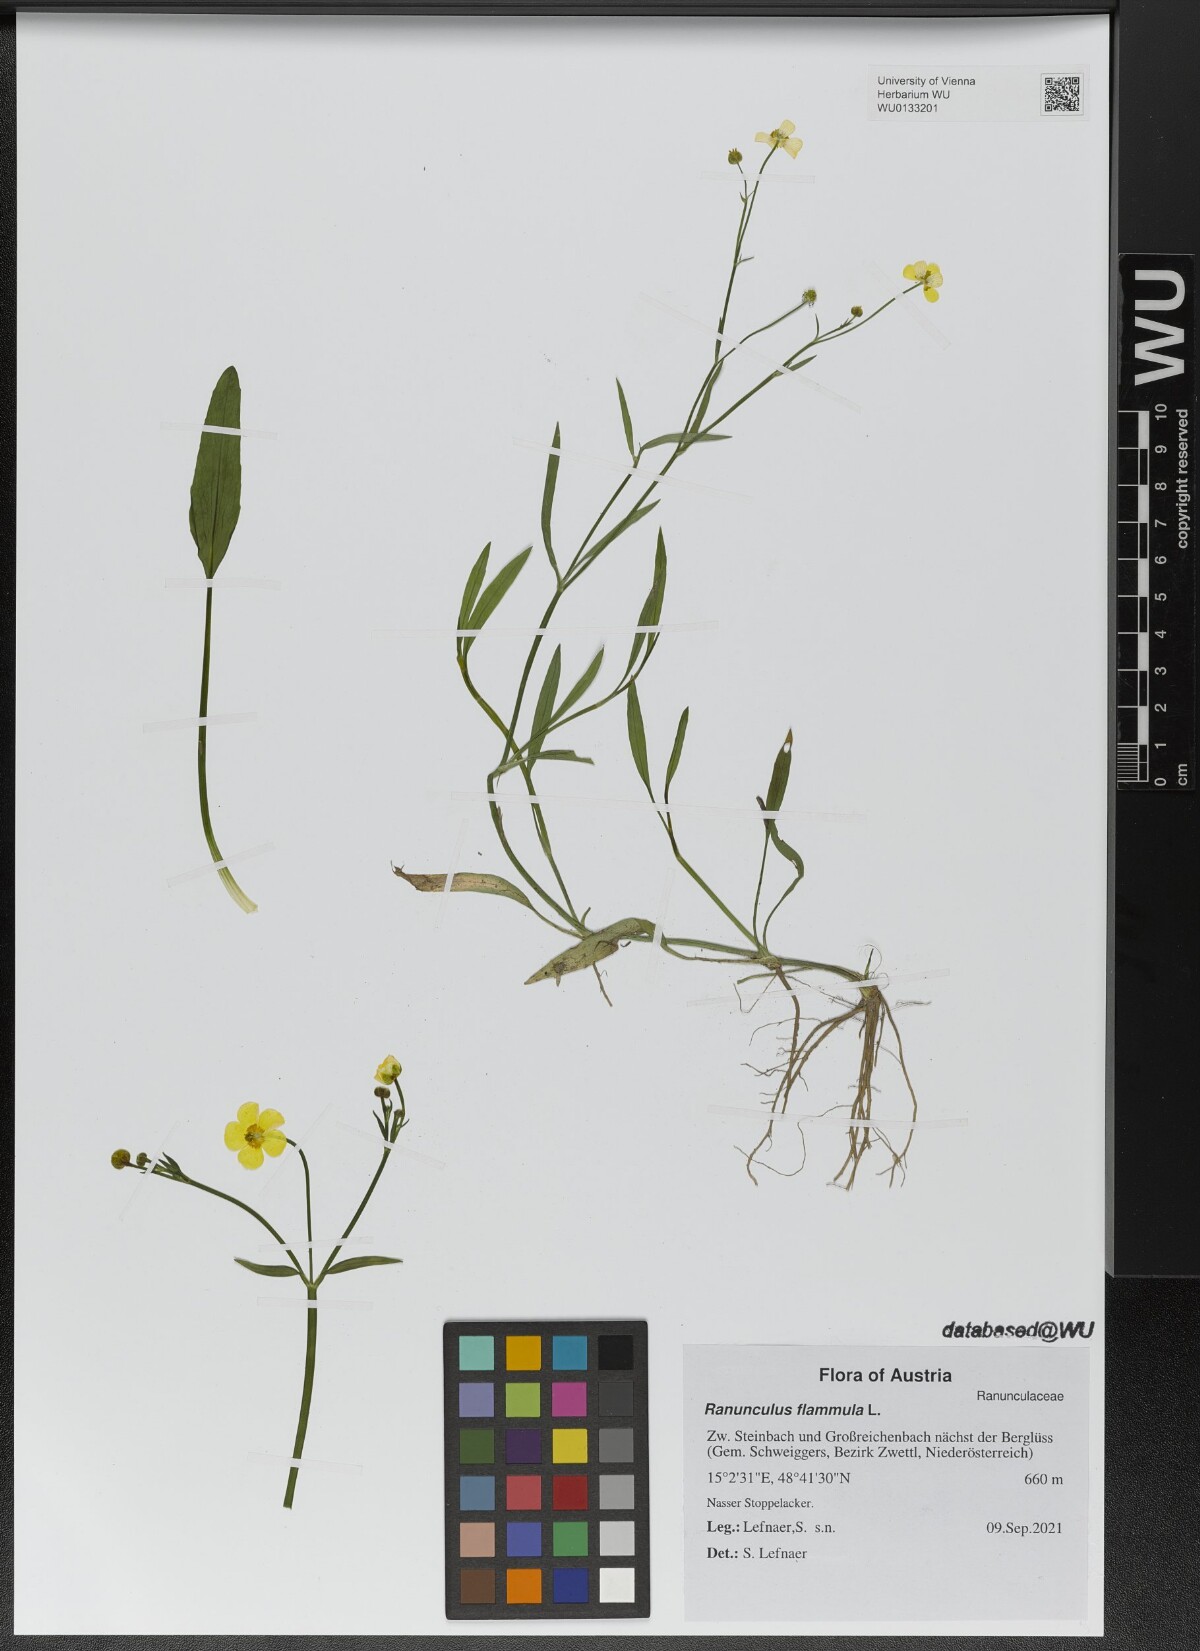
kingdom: Plantae
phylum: Tracheophyta
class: Magnoliopsida
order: Ranunculales
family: Ranunculaceae
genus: Ranunculus
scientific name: Ranunculus flammula
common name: Lesser spearwort
